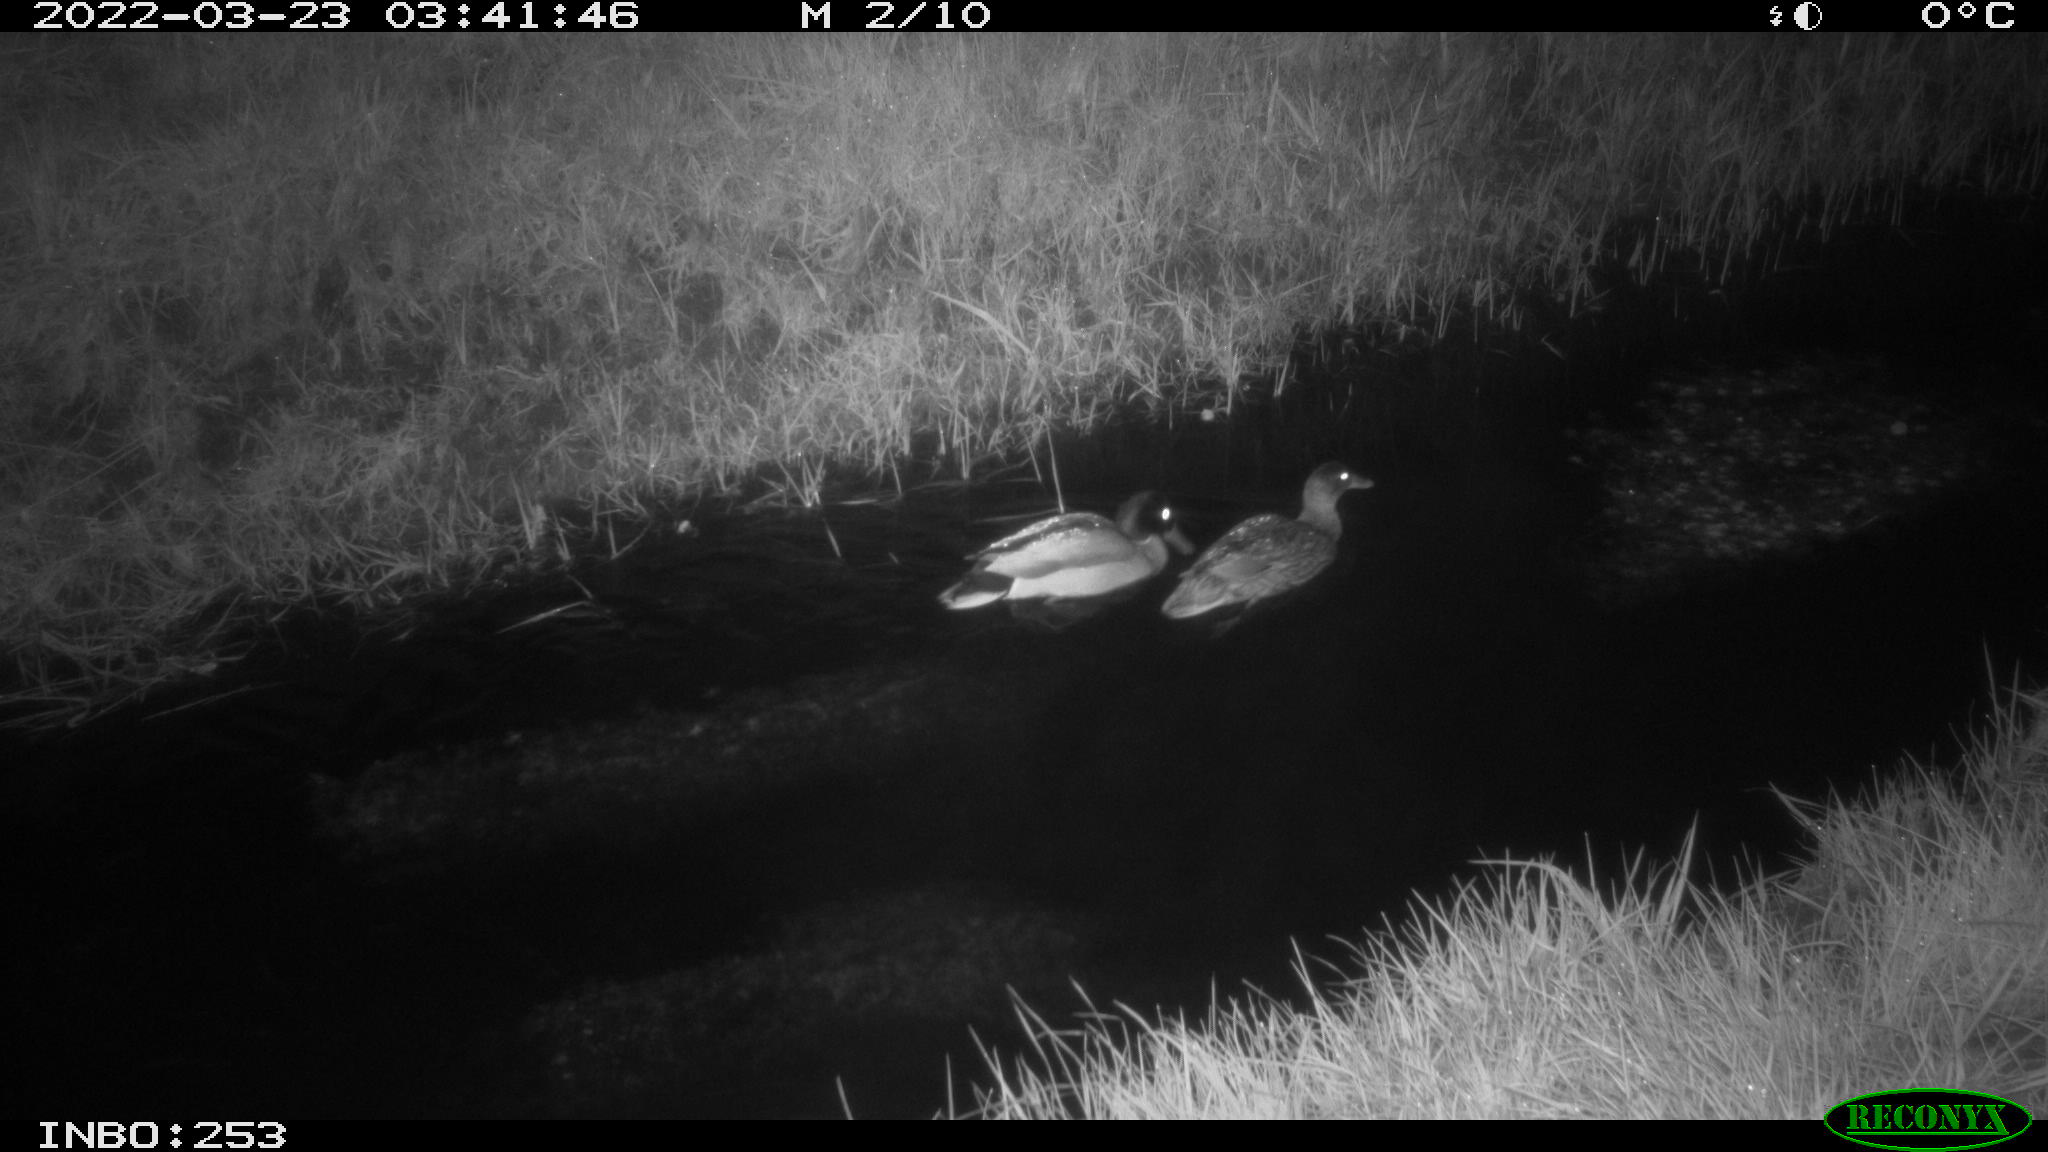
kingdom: Animalia
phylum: Chordata
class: Aves
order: Anseriformes
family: Anatidae
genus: Anas
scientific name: Anas platyrhynchos
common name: Mallard
